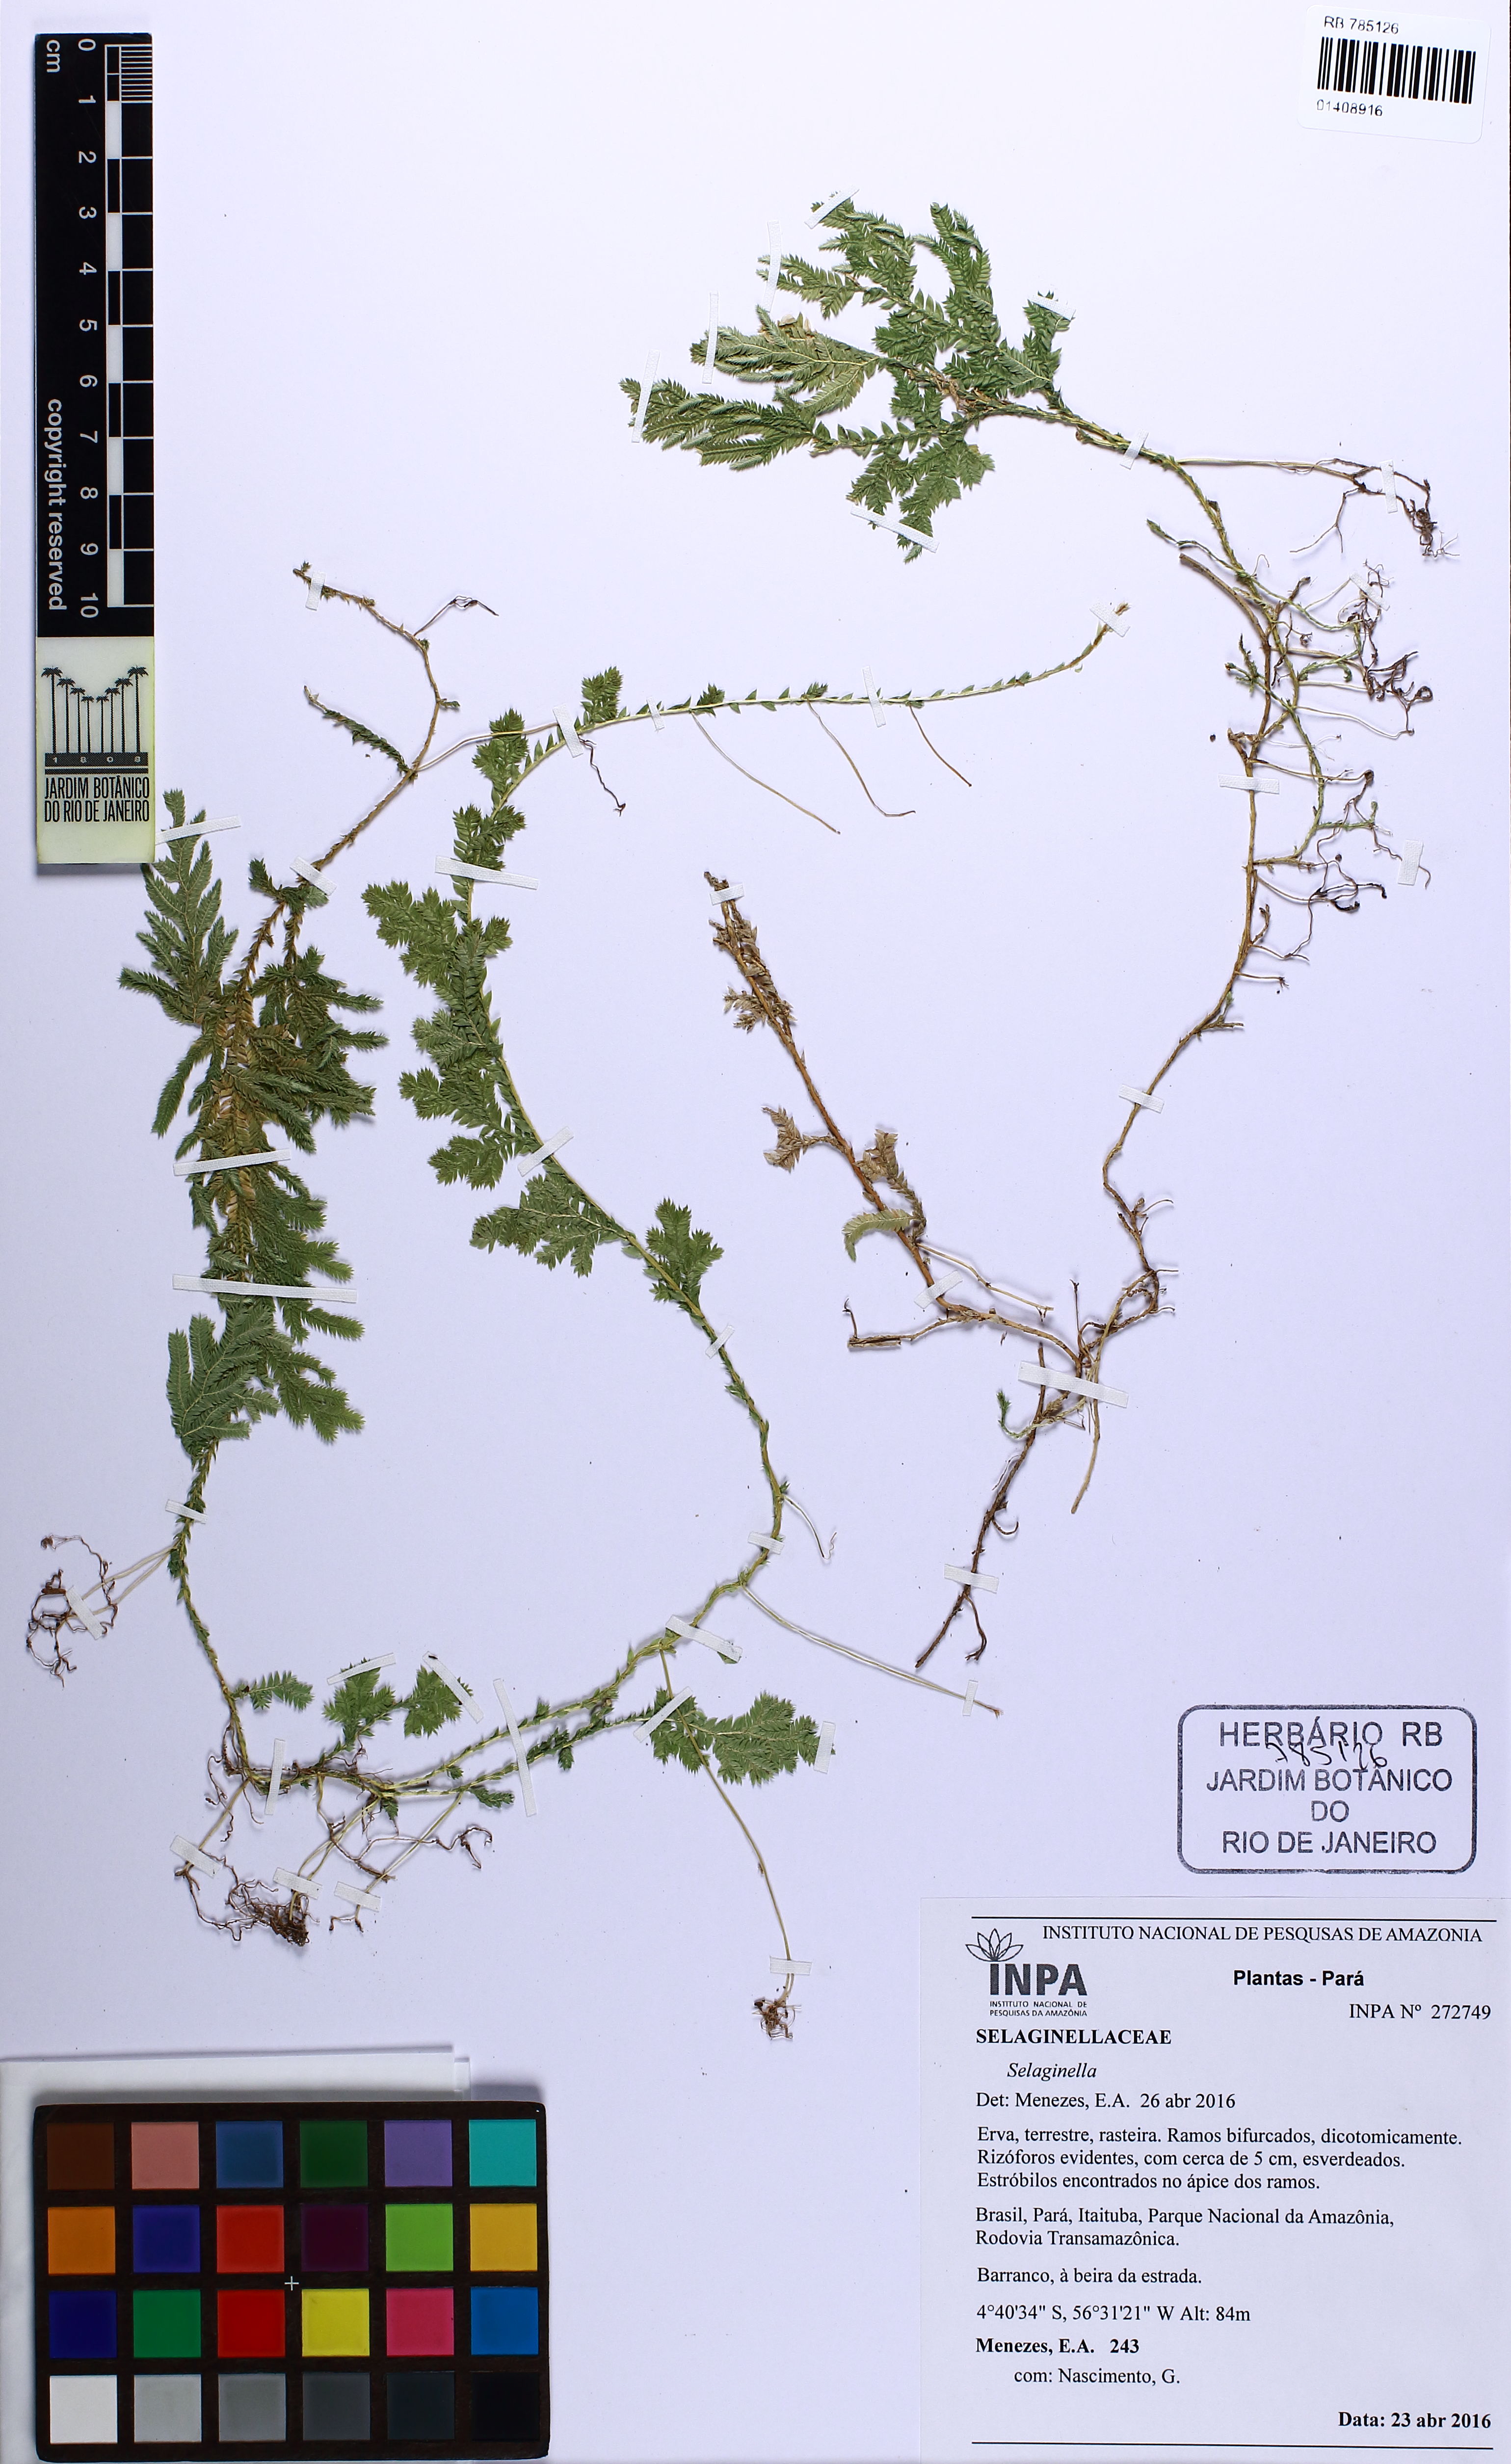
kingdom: Plantae
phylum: Tracheophyta
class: Lycopodiopsida
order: Selaginellales
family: Selaginellaceae
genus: Selaginella
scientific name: Selaginella
